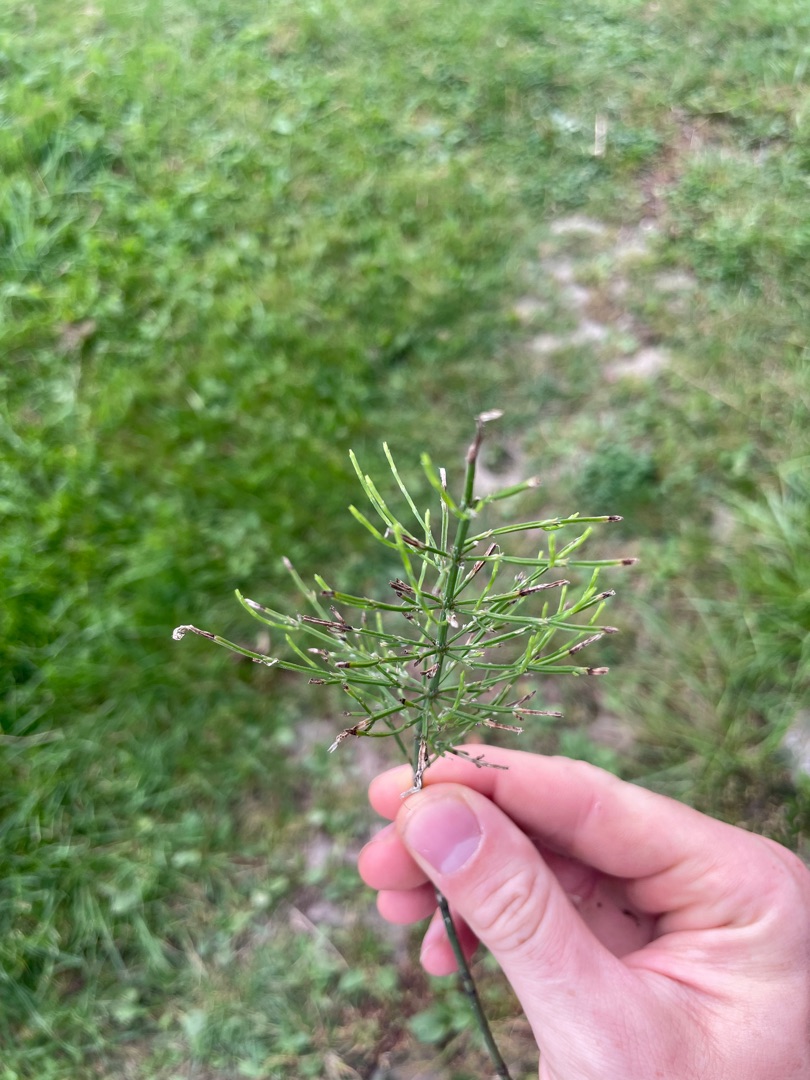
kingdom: Plantae
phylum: Tracheophyta
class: Polypodiopsida
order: Equisetales
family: Equisetaceae
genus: Equisetum
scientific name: Equisetum arvense
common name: Ager-padderok
